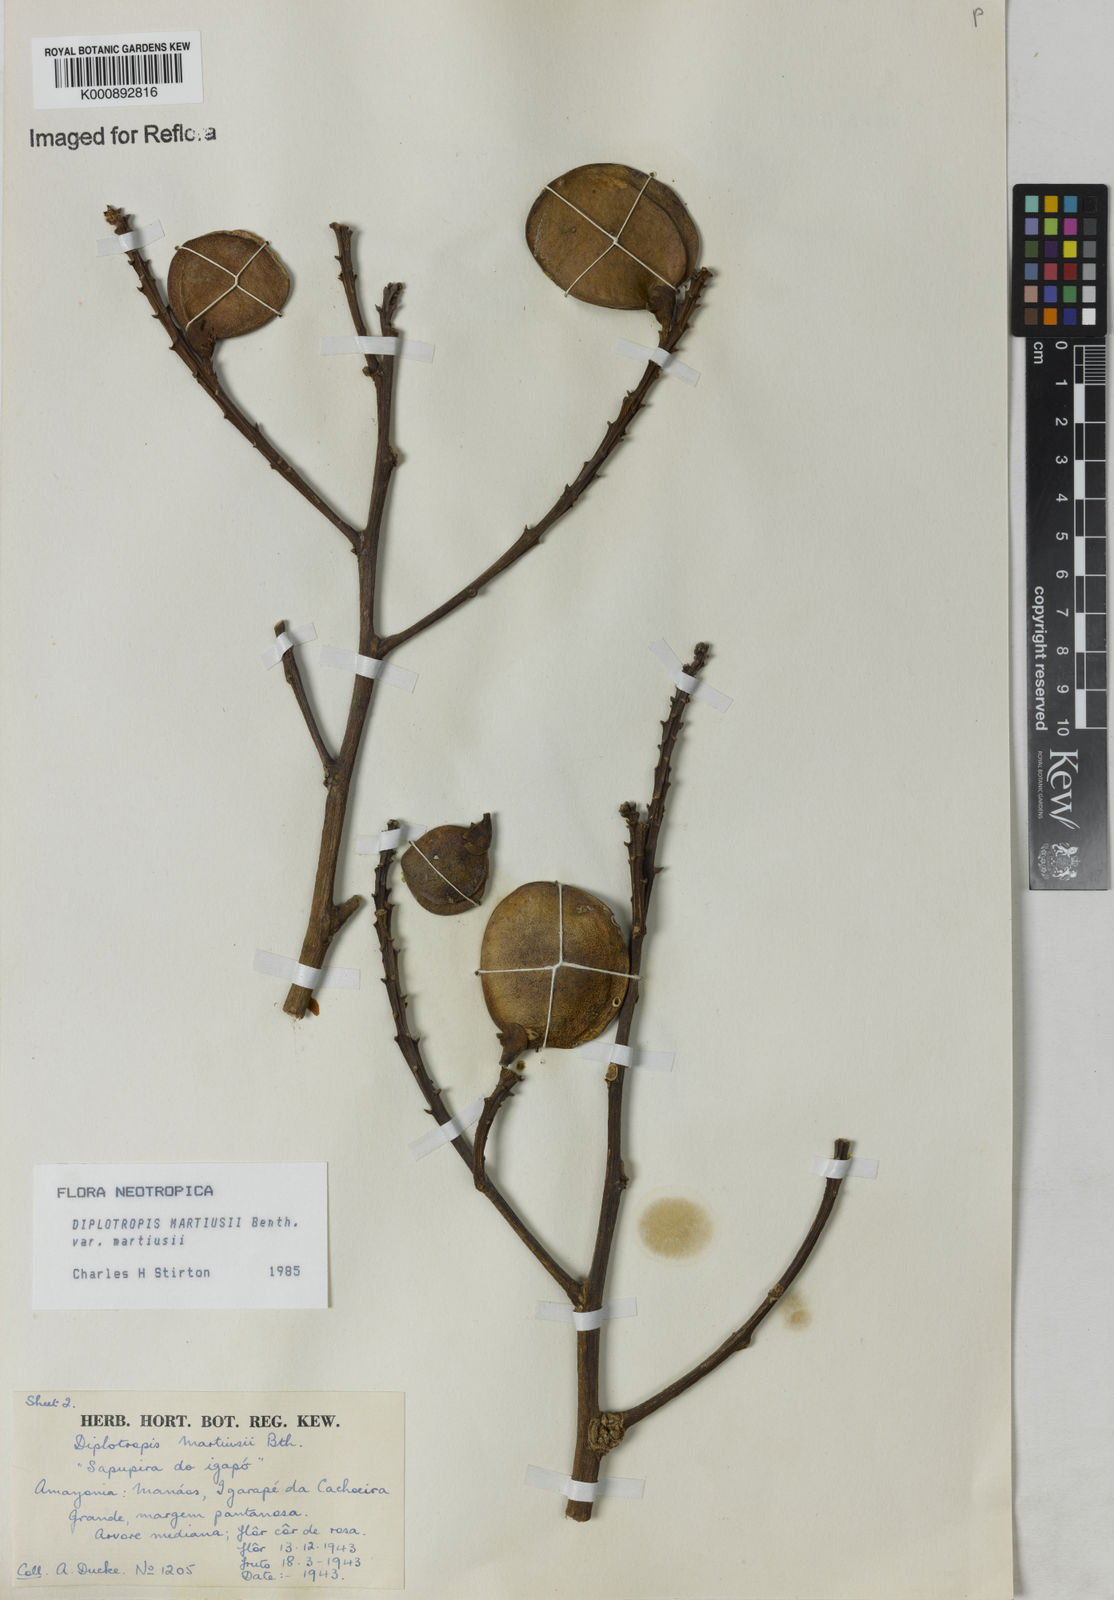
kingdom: Plantae
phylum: Tracheophyta
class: Magnoliopsida
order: Fabales
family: Fabaceae
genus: Diplotropis
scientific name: Diplotropis
